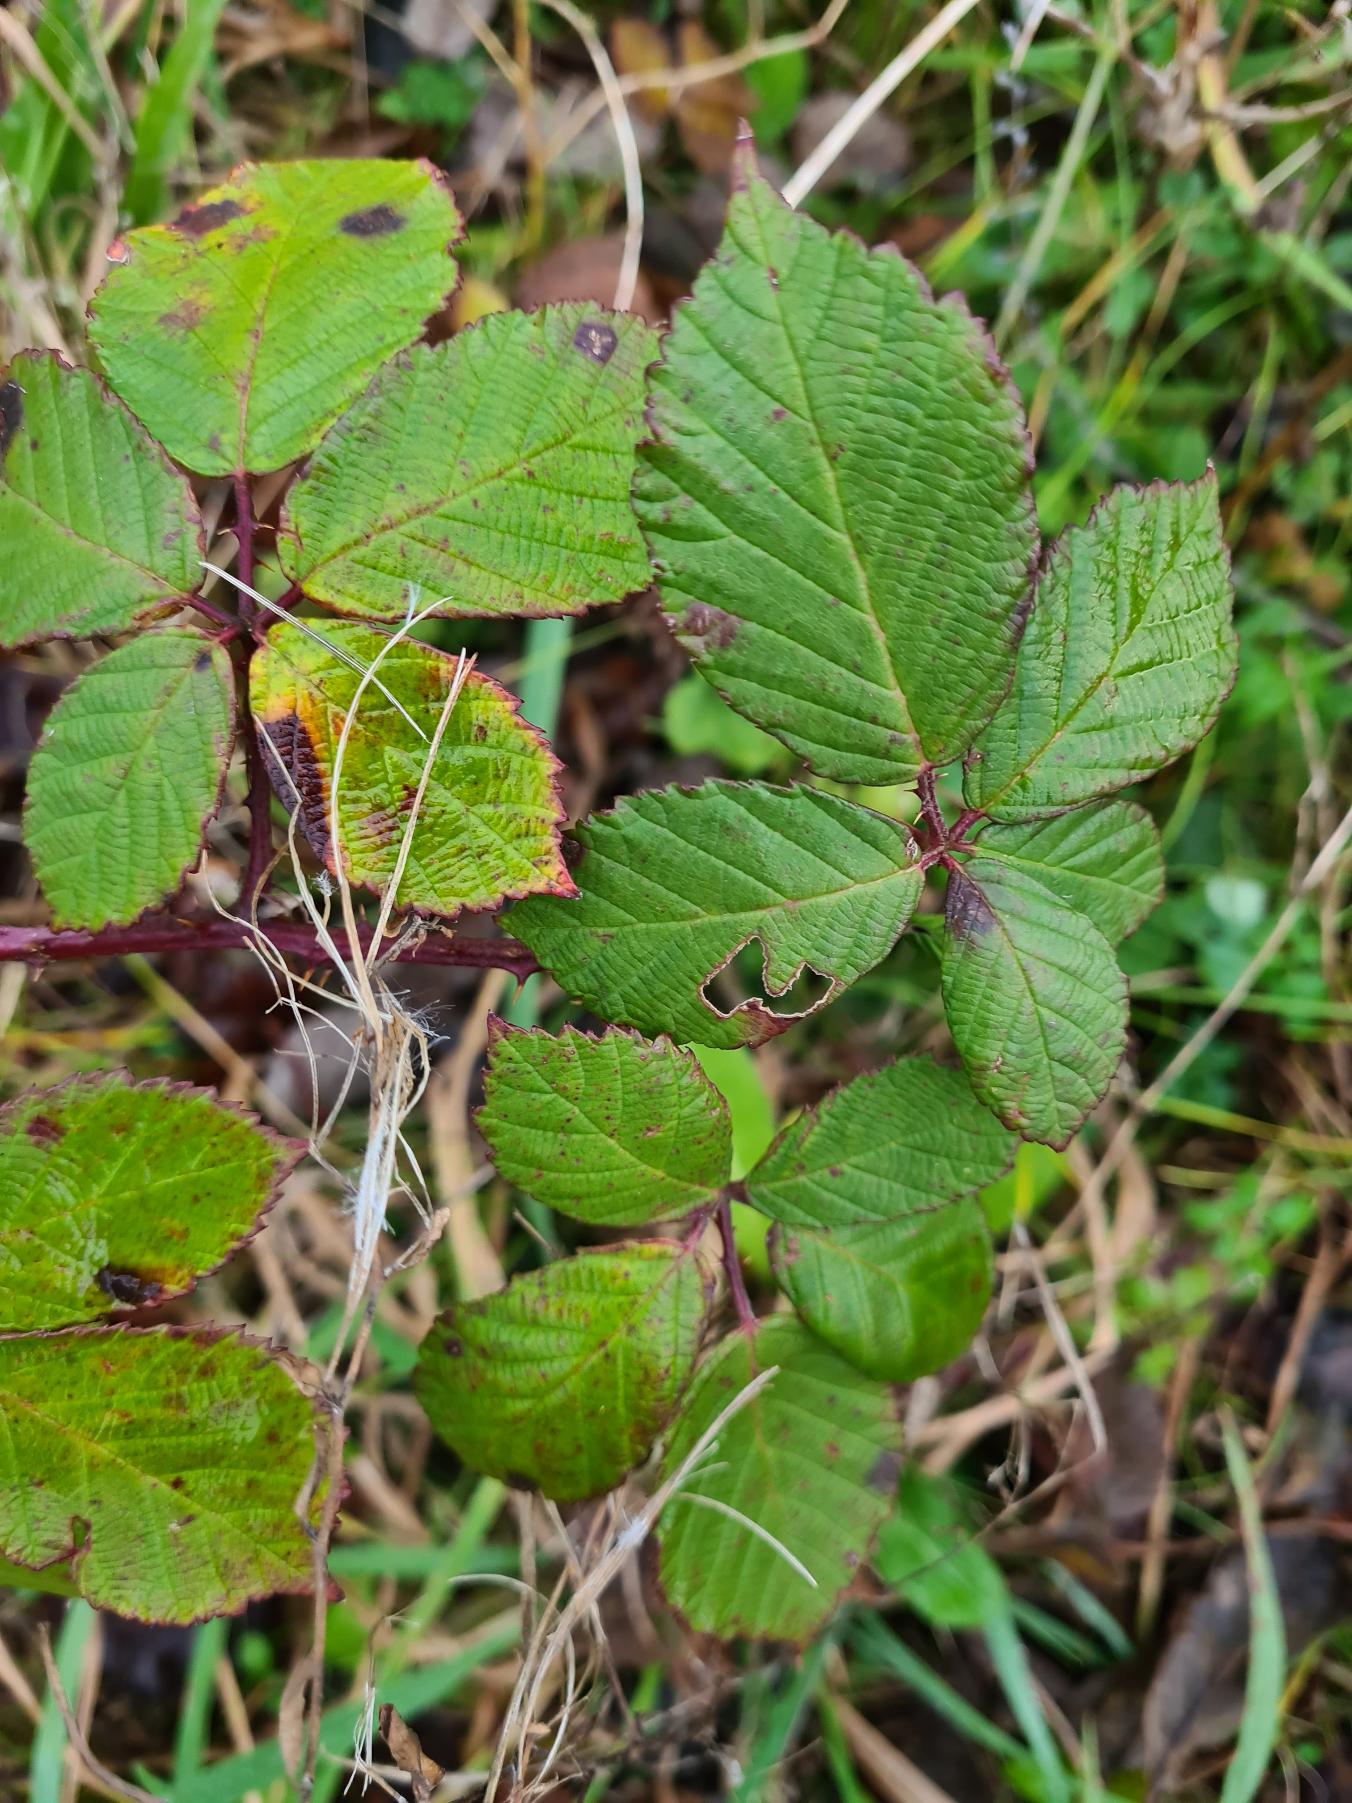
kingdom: Plantae
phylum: Tracheophyta
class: Magnoliopsida
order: Rosales
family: Rosaceae
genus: Rubus
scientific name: Rubus
